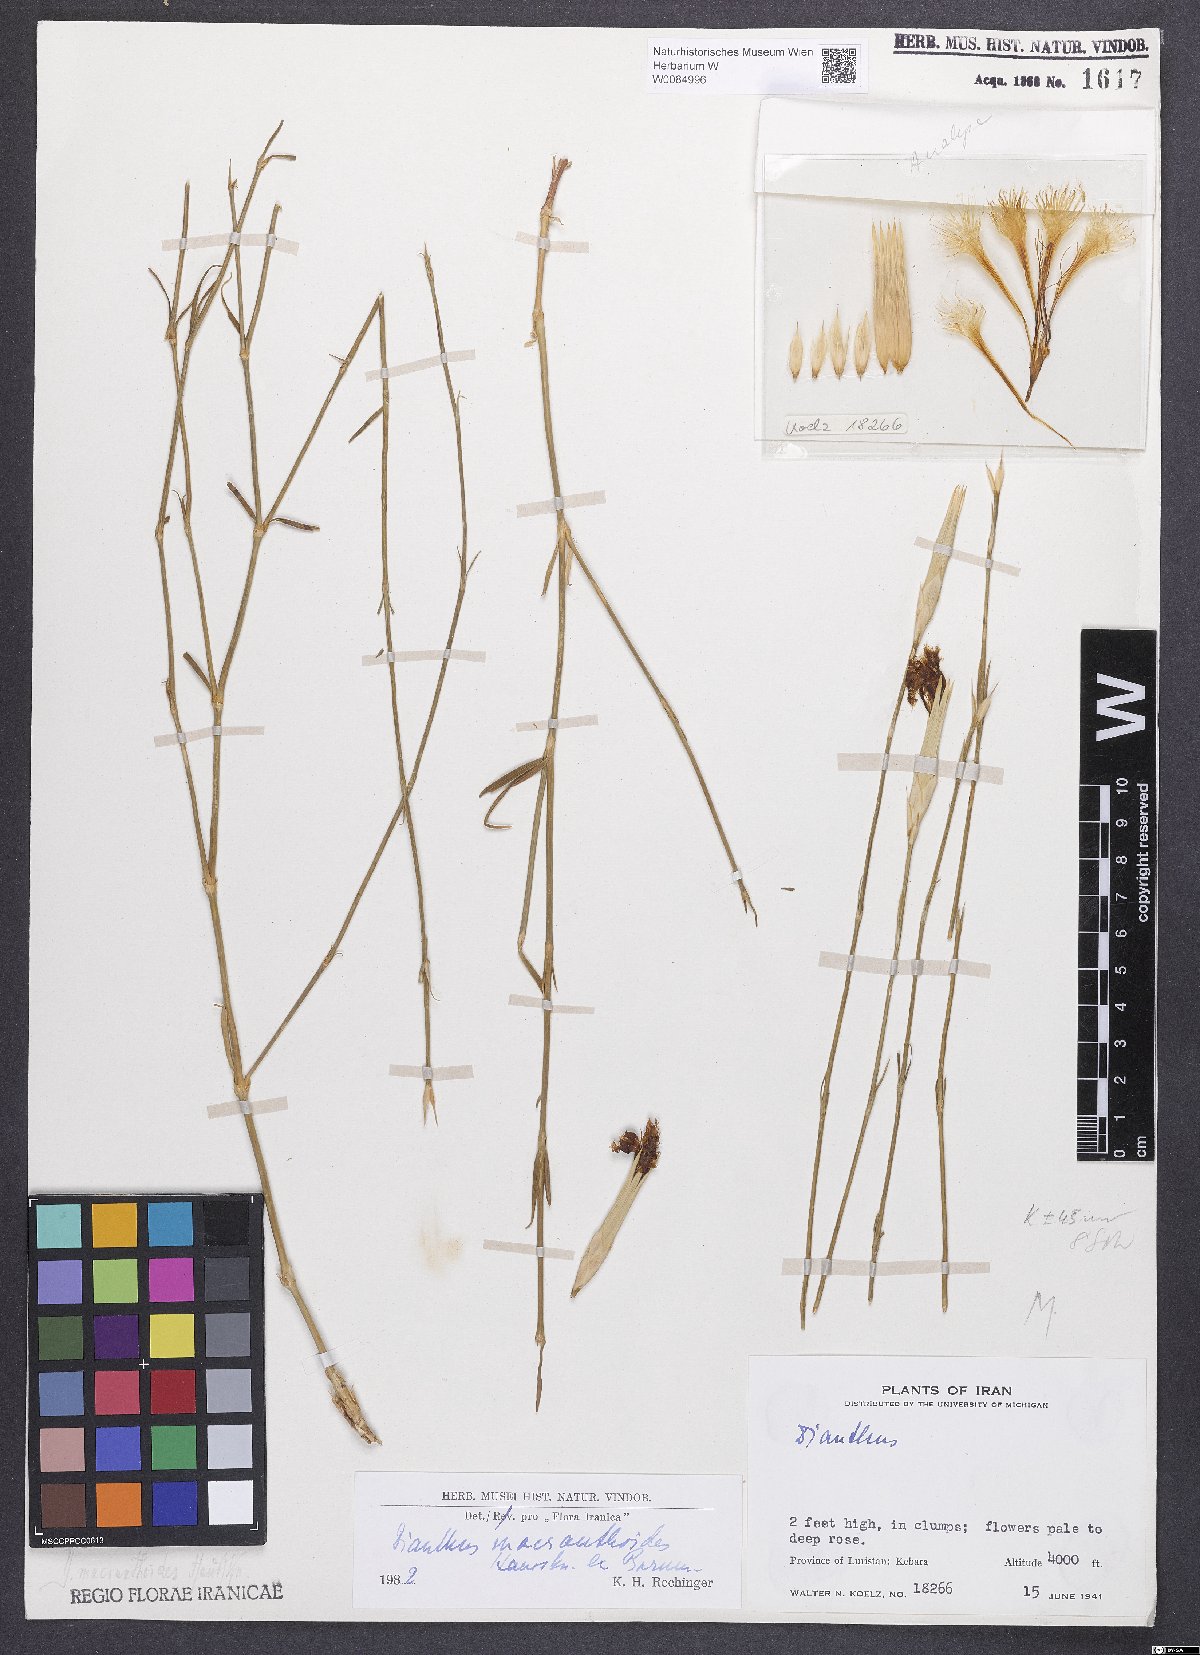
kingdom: Plantae
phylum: Tracheophyta
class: Magnoliopsida
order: Caryophyllales
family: Caryophyllaceae
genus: Dianthus
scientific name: Dianthus macranthoides
